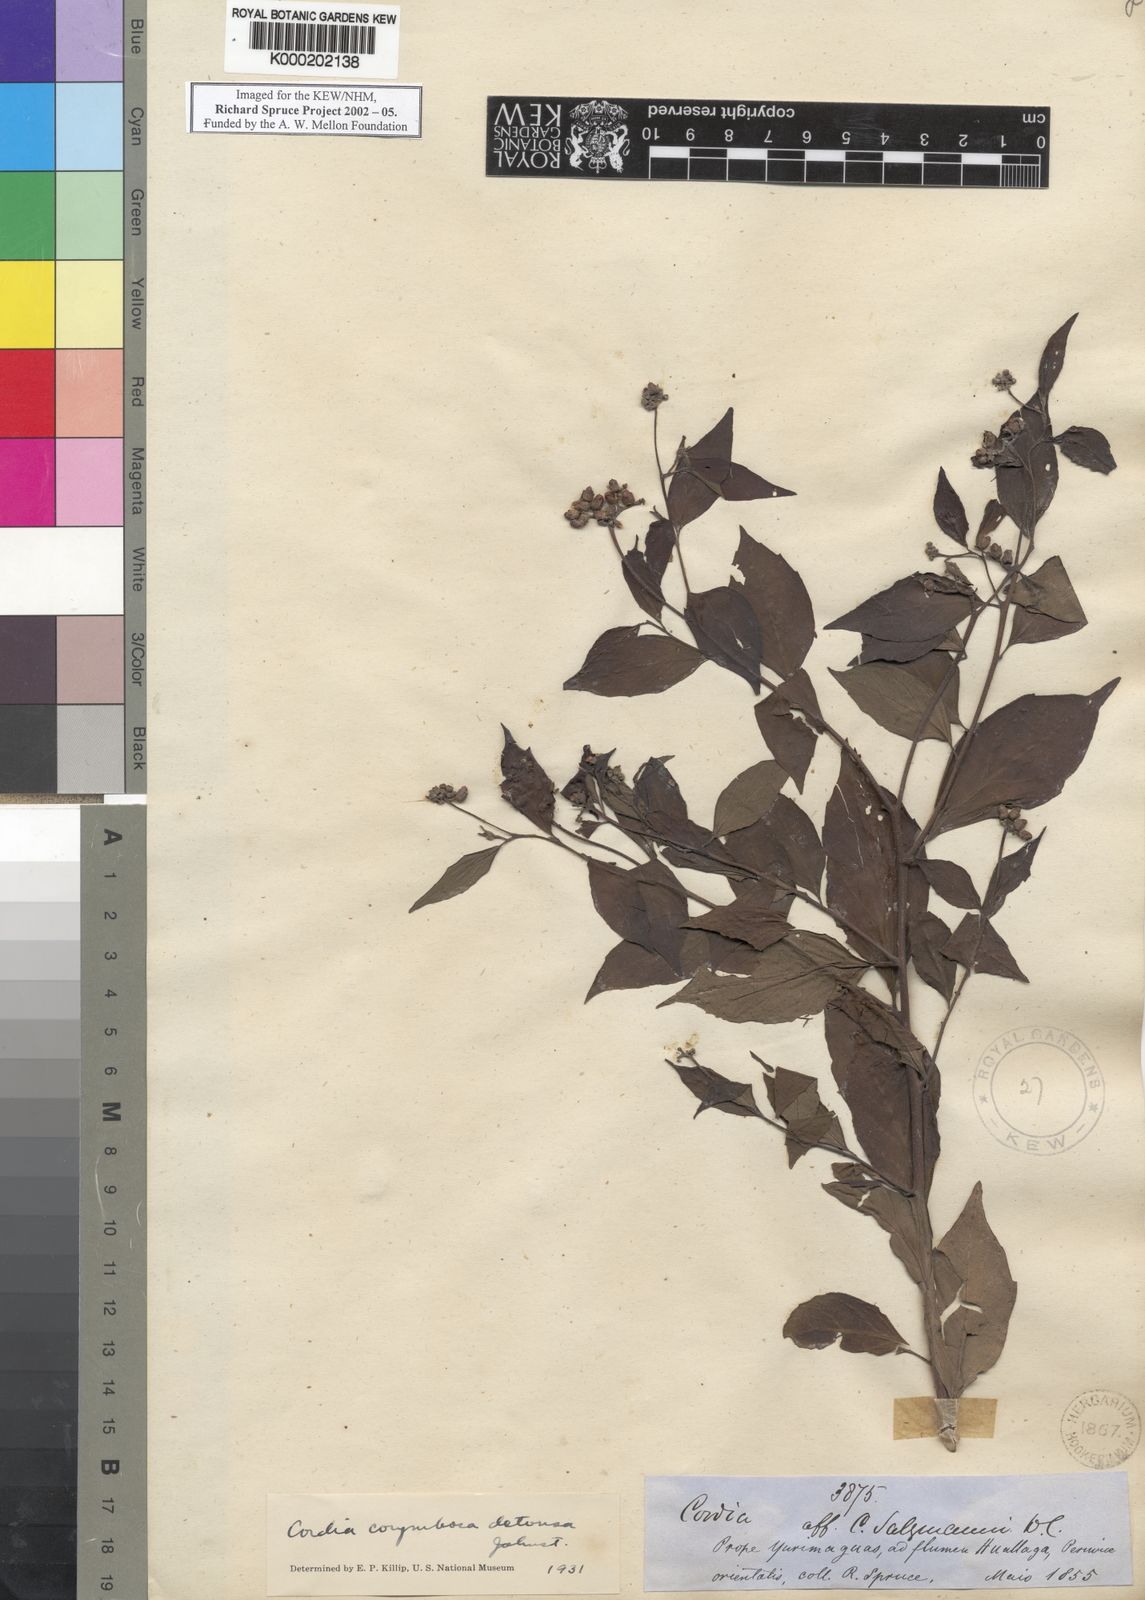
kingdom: Plantae
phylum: Tracheophyta
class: Magnoliopsida
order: Boraginales
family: Cordiaceae
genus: Varronia
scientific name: Varronia dichotoma
